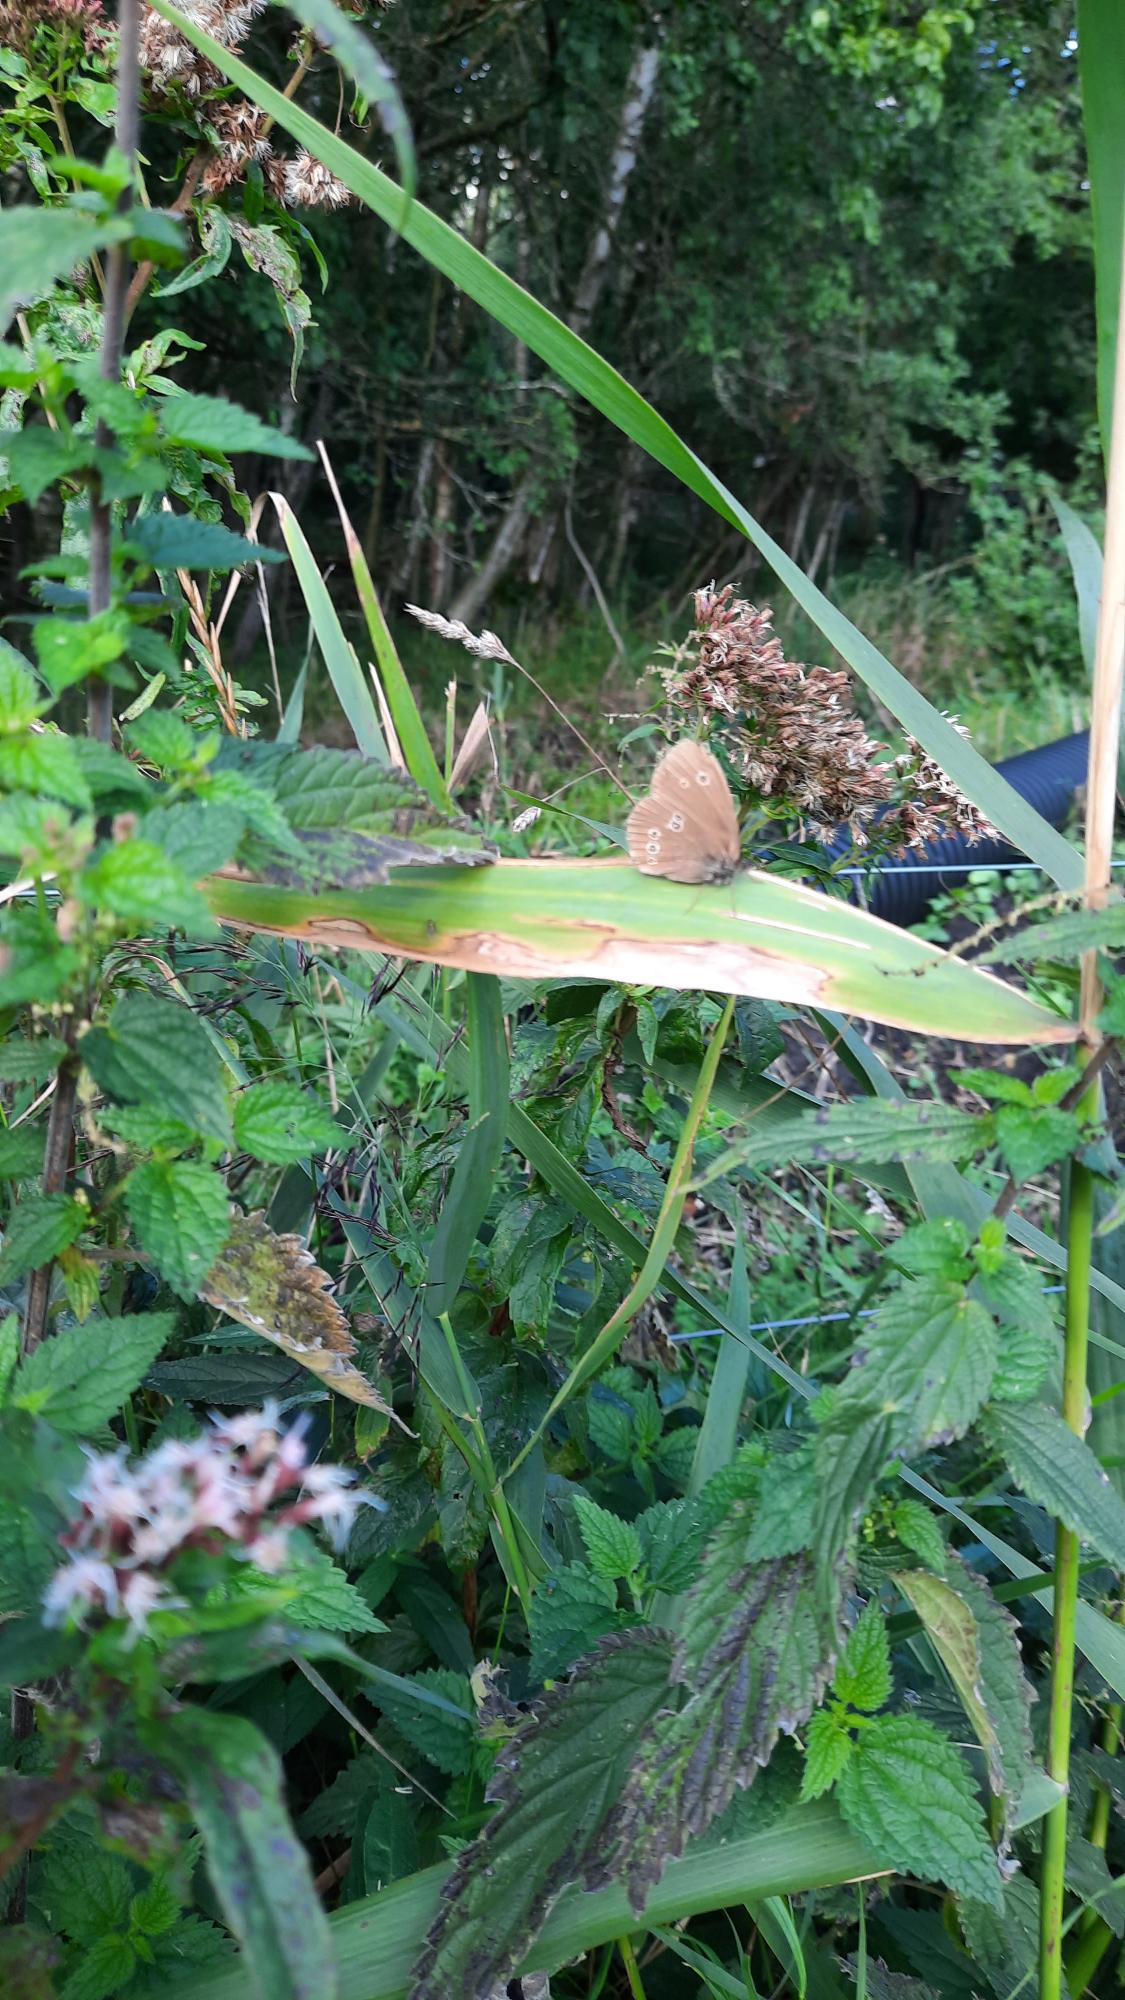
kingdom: Animalia
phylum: Arthropoda
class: Insecta
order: Lepidoptera
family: Nymphalidae
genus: Aphantopus
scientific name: Aphantopus hyperantus
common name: Engrandøje
